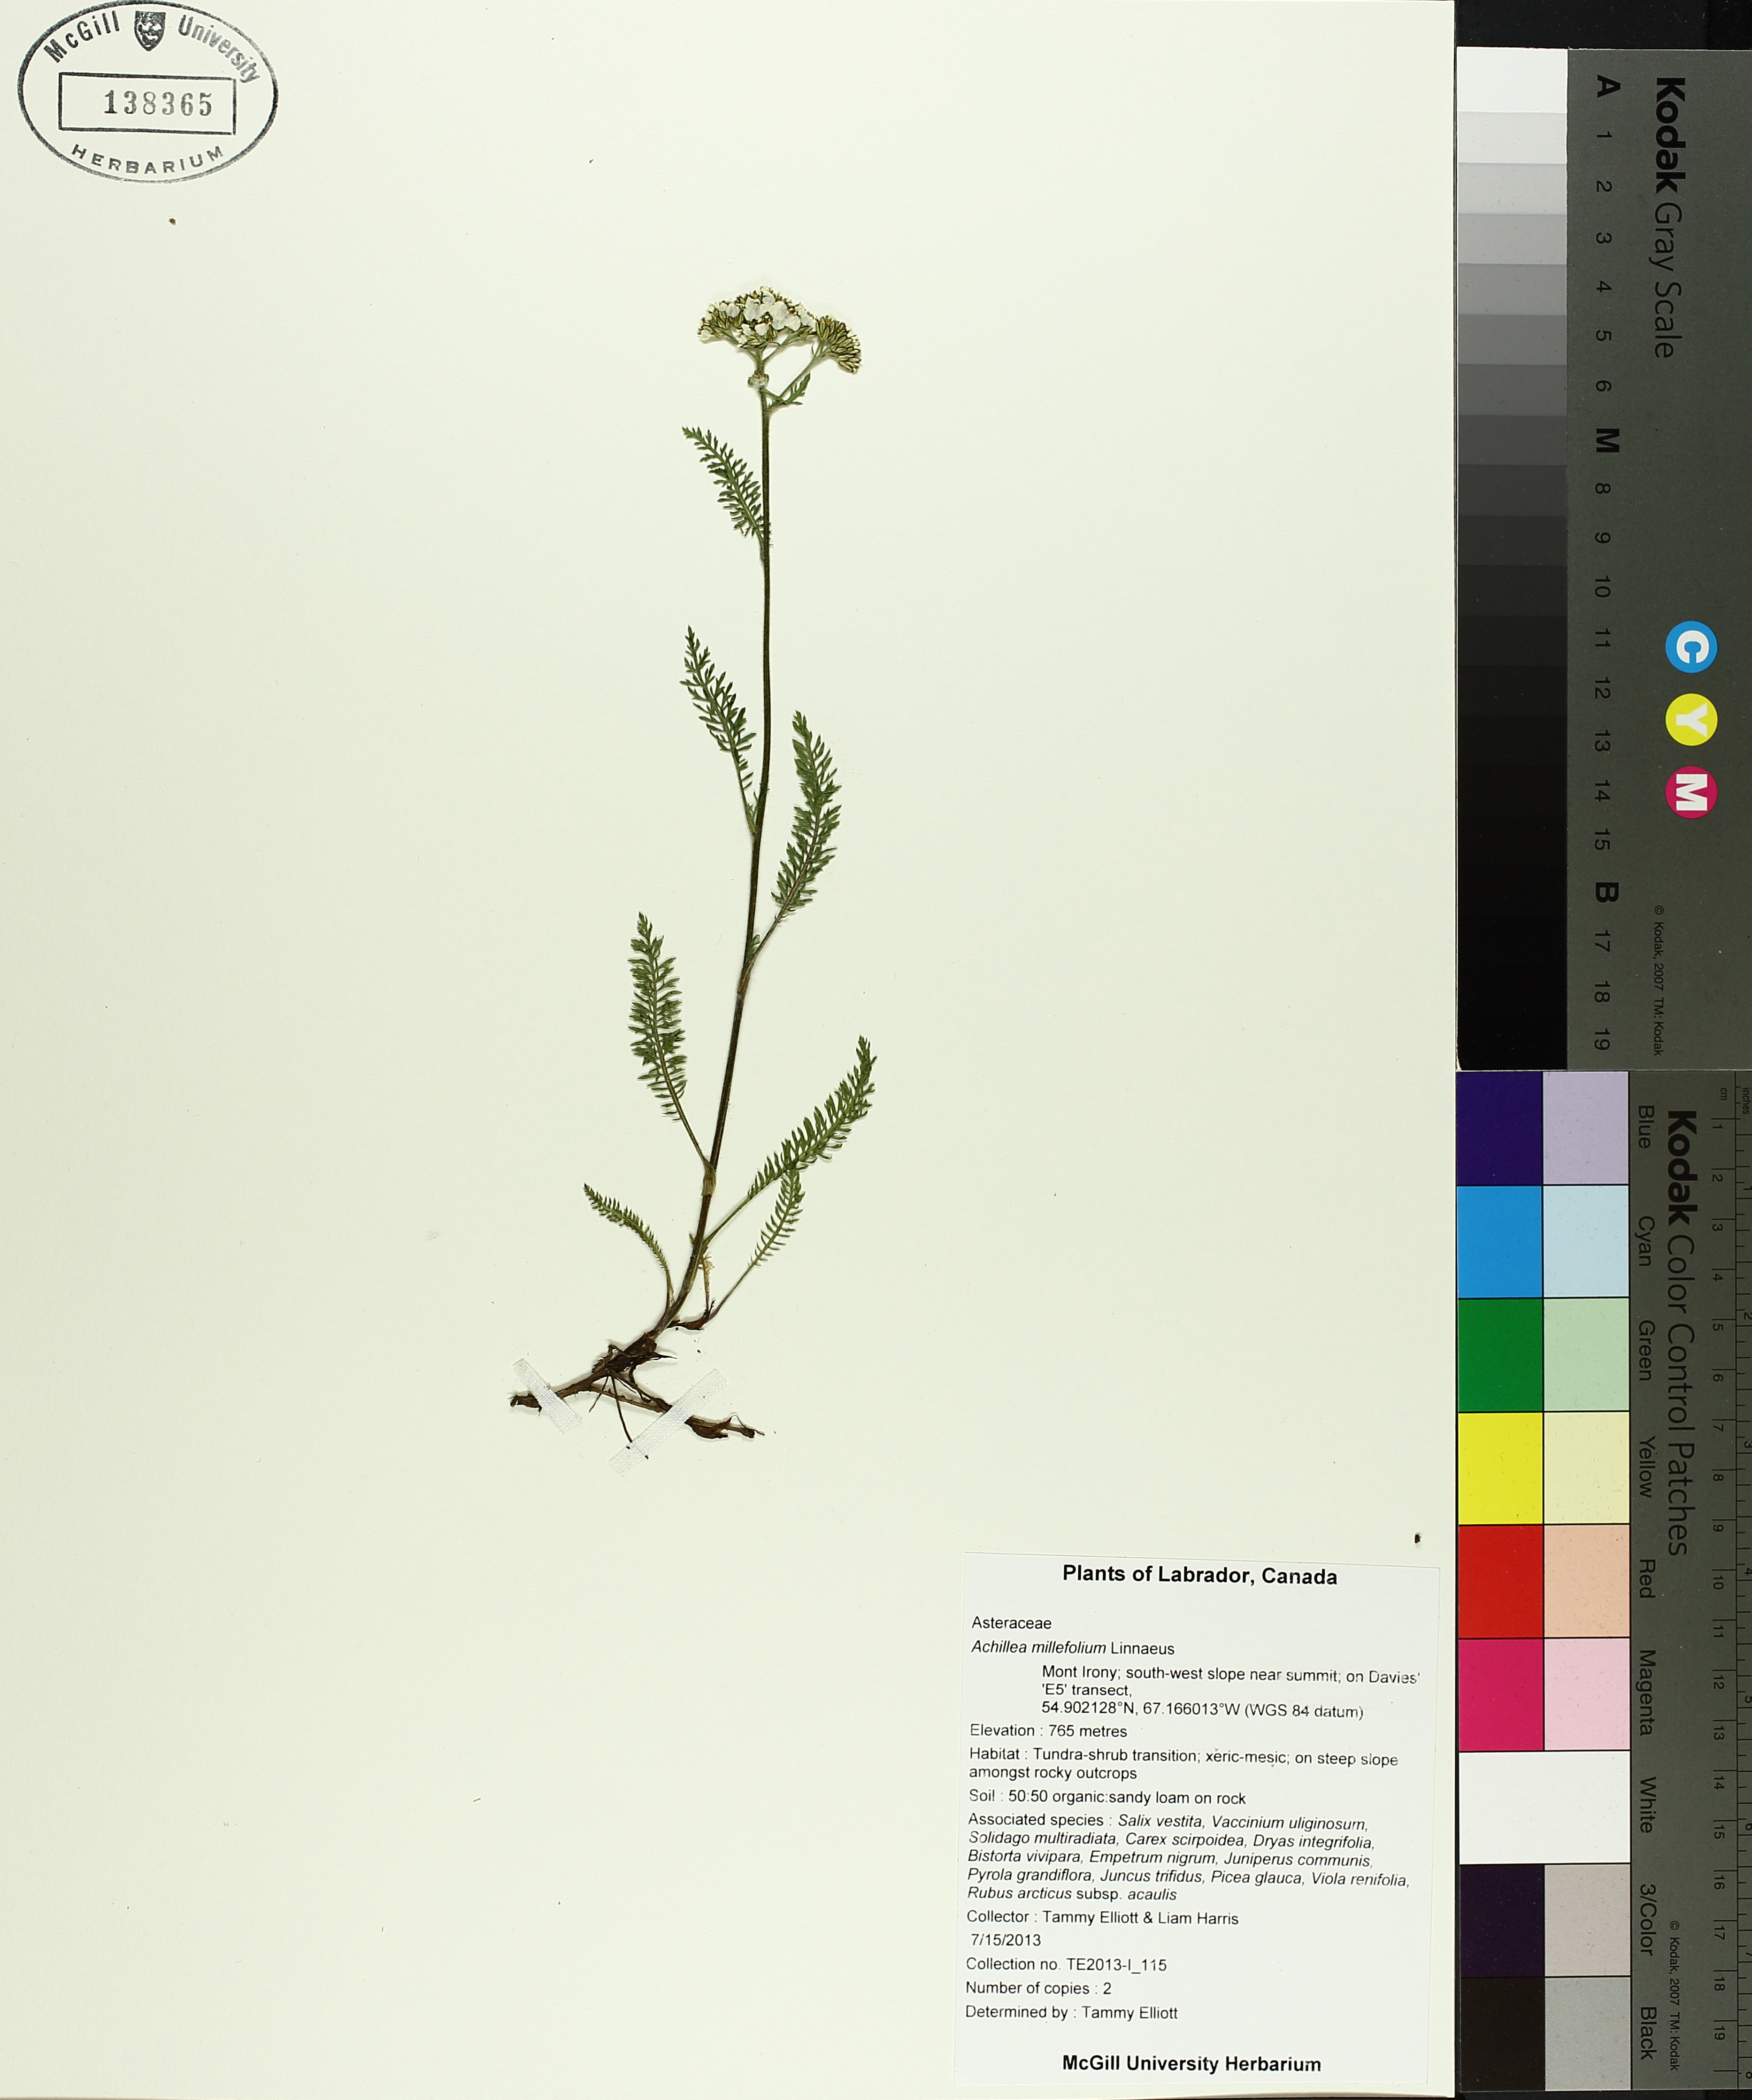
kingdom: Plantae
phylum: Tracheophyta
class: Liliopsida
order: Asparagales
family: Iridaceae
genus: Sisyrinchium
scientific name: Sisyrinchium angustifolium
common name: Narrow-leaf blue-eyed-grass
